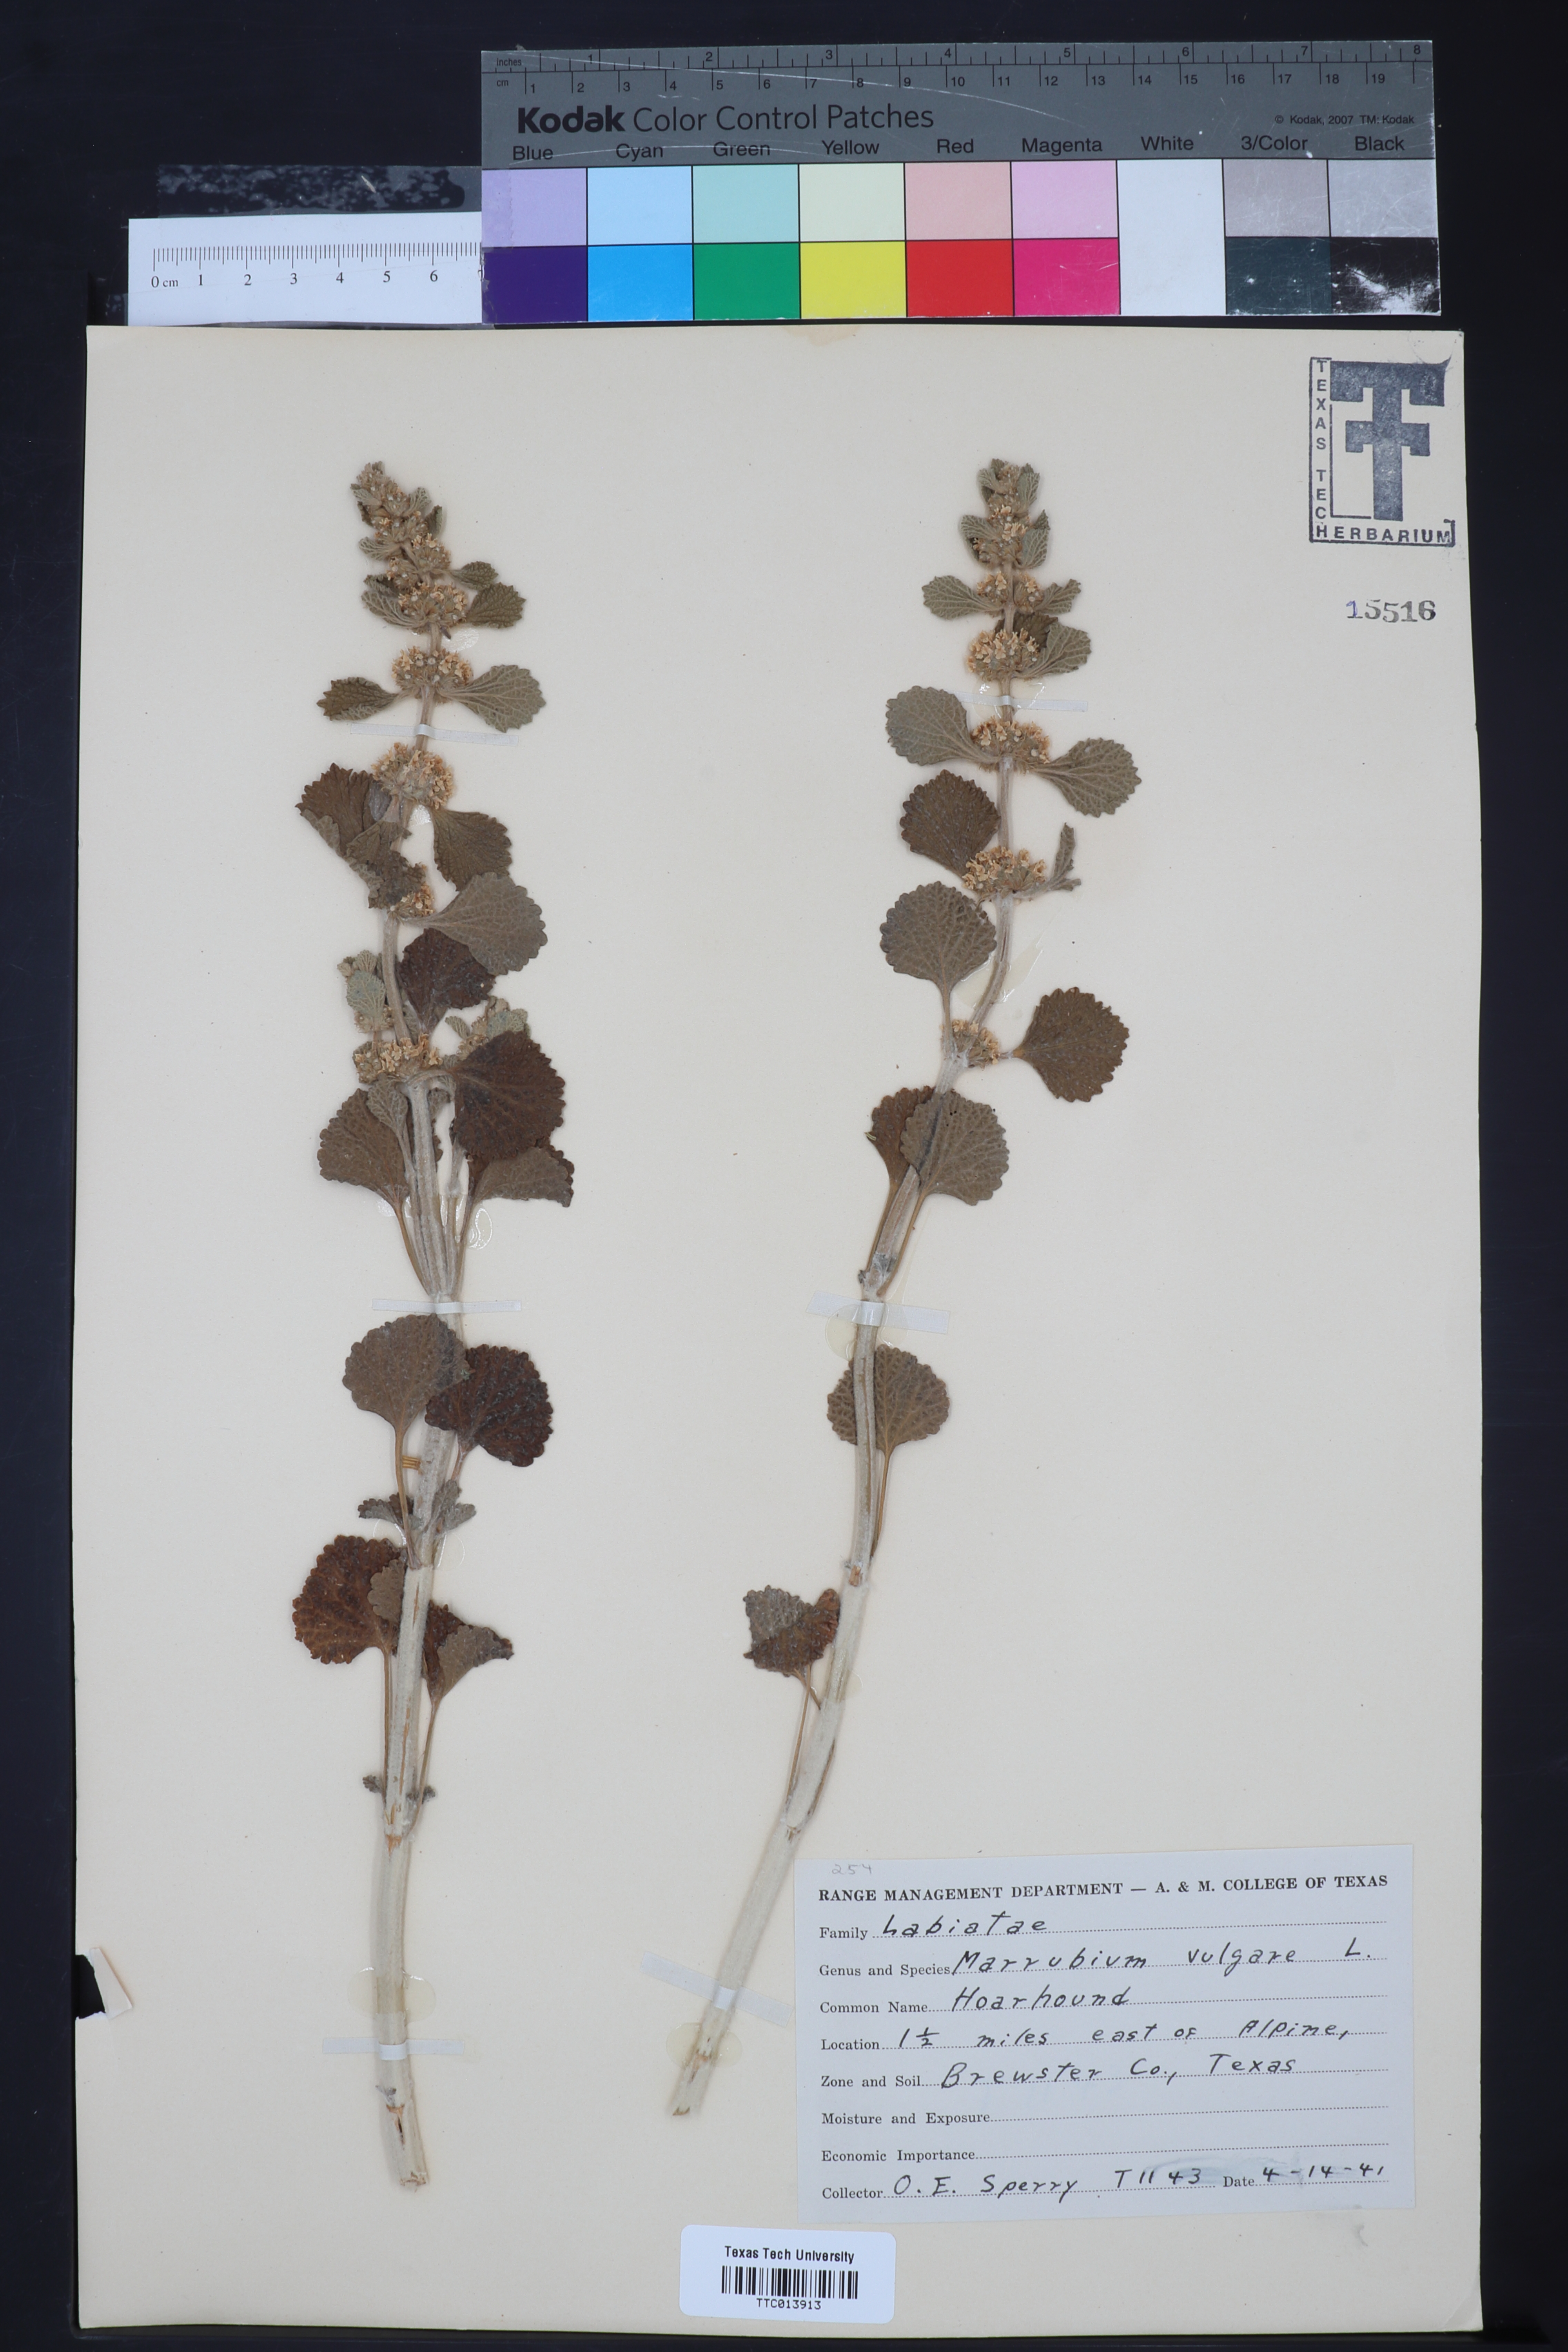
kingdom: Plantae
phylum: Tracheophyta
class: Magnoliopsida
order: Lamiales
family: Lamiaceae
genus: Marrubium
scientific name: Marrubium vulgare
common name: Horehound
